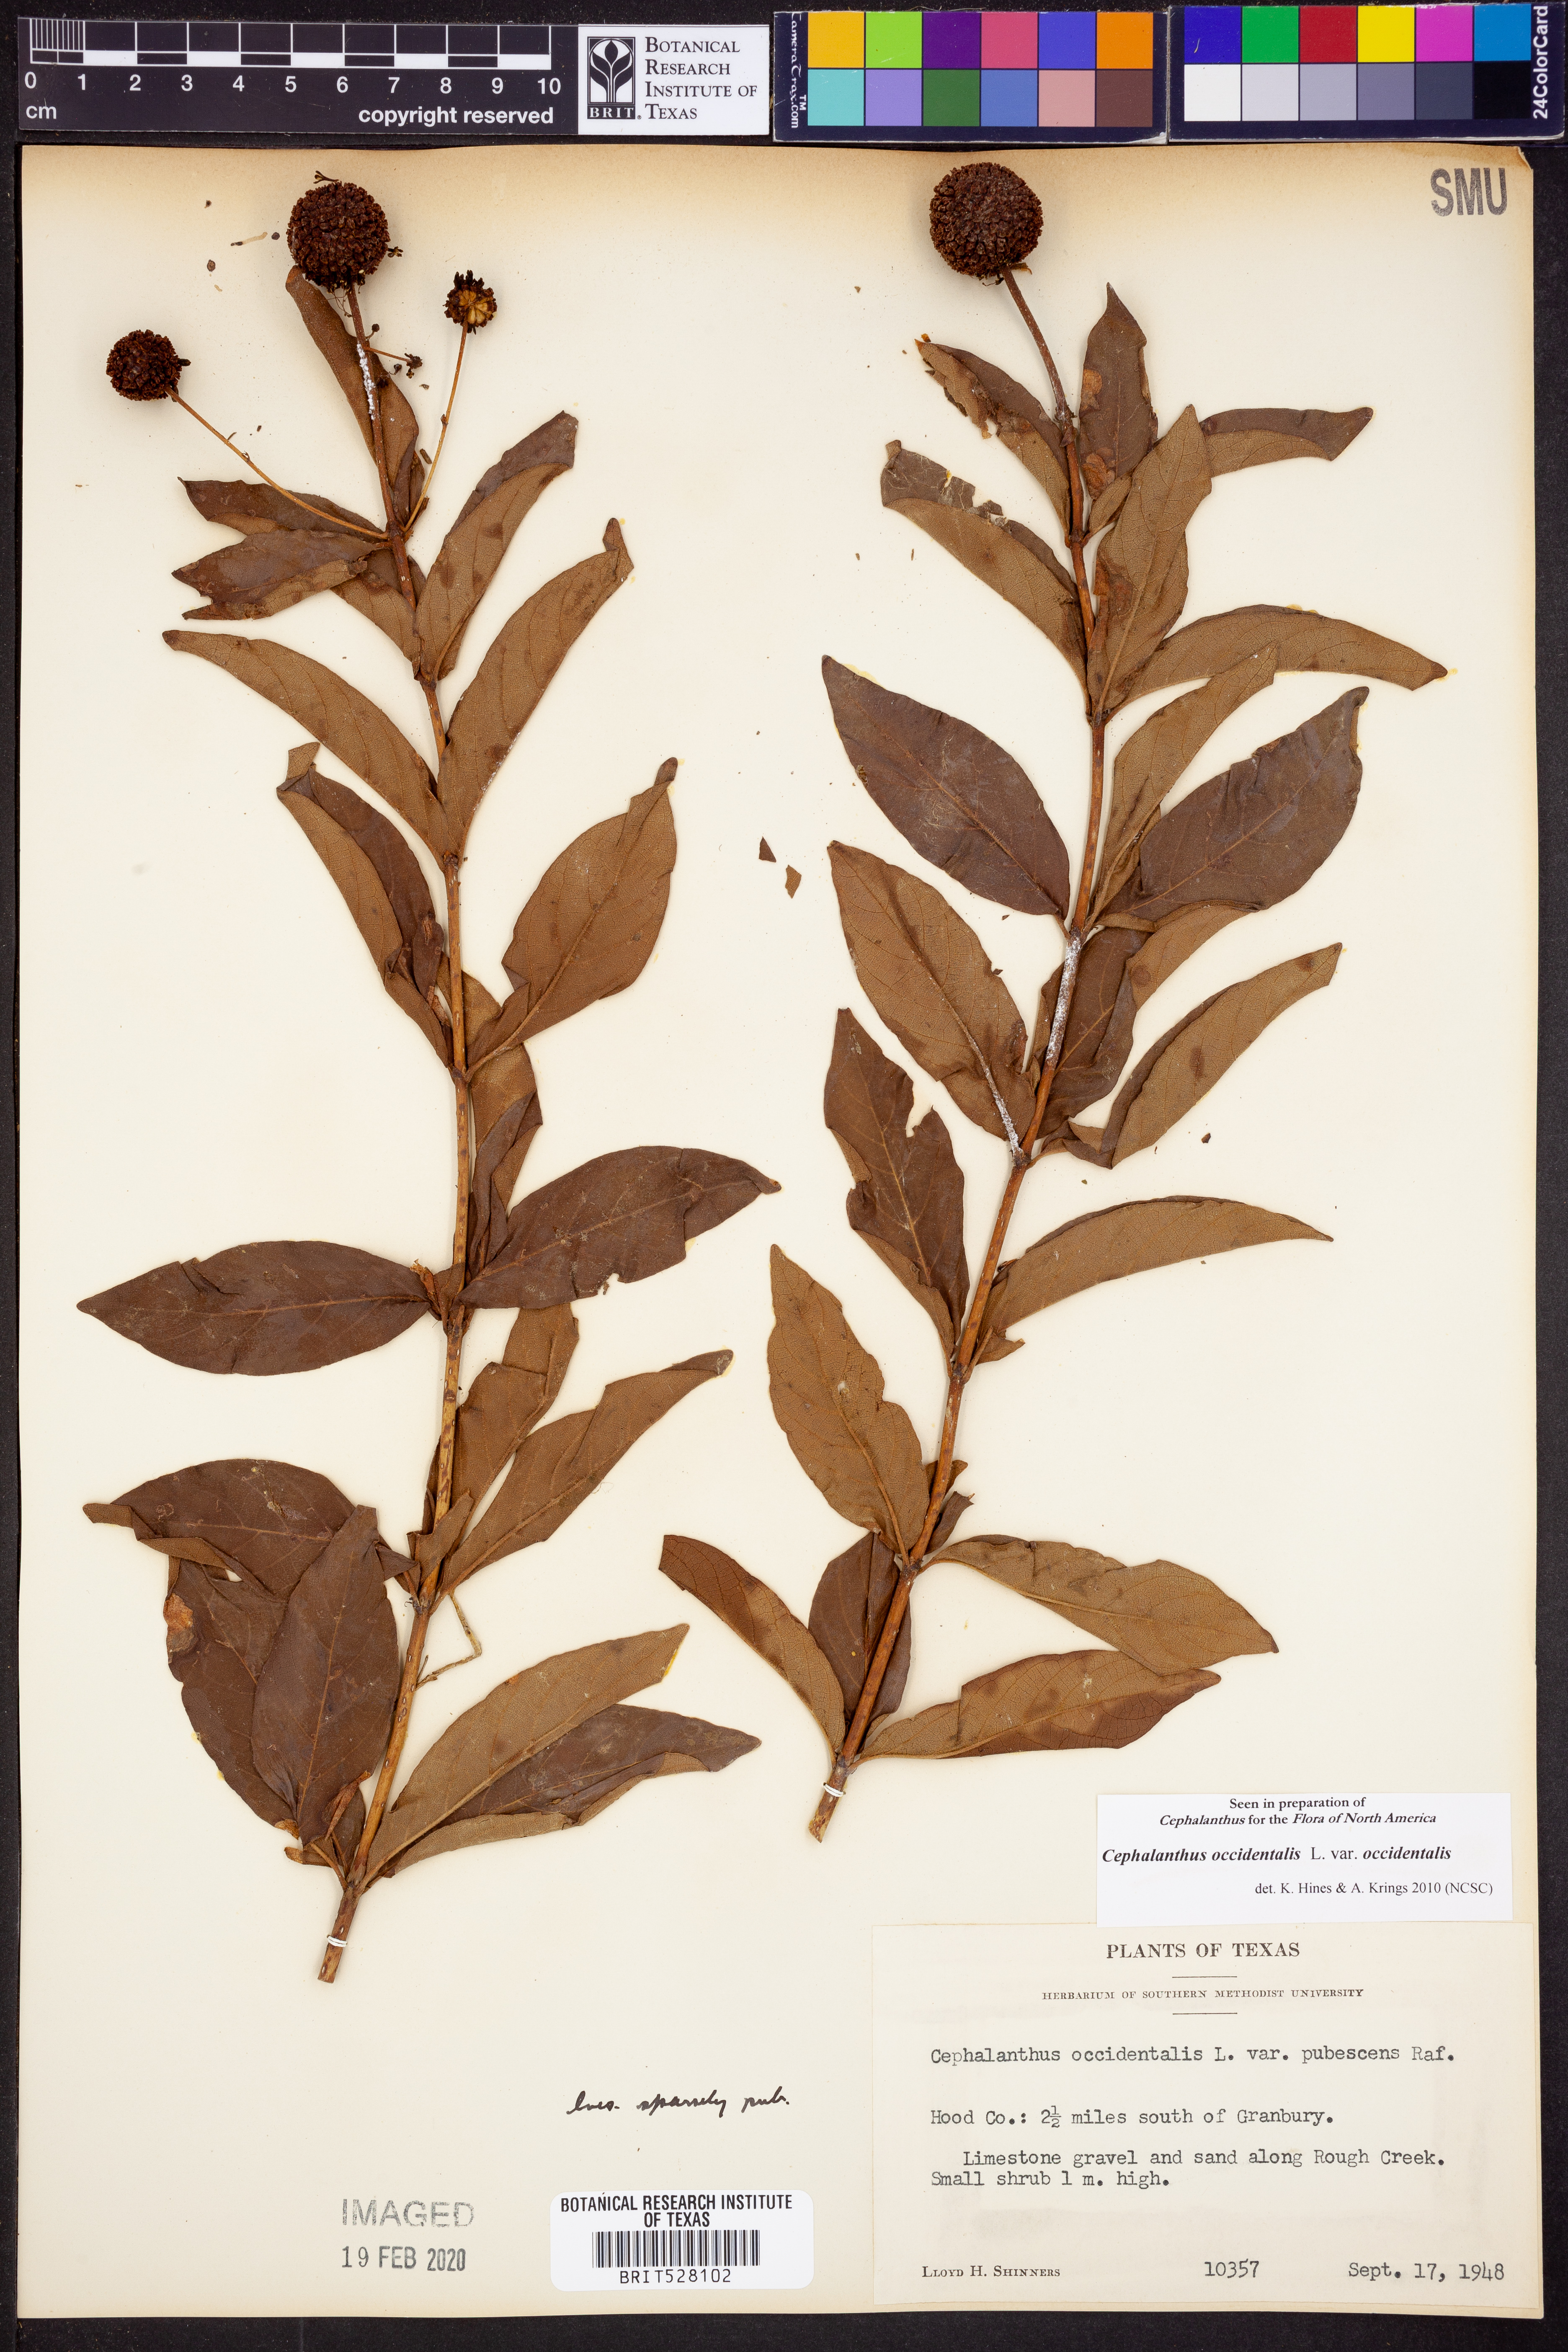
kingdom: Plantae
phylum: Tracheophyta
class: Magnoliopsida
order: Gentianales
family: Rubiaceae
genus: Cephalanthus
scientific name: Cephalanthus occidentalis
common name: Button-willow
